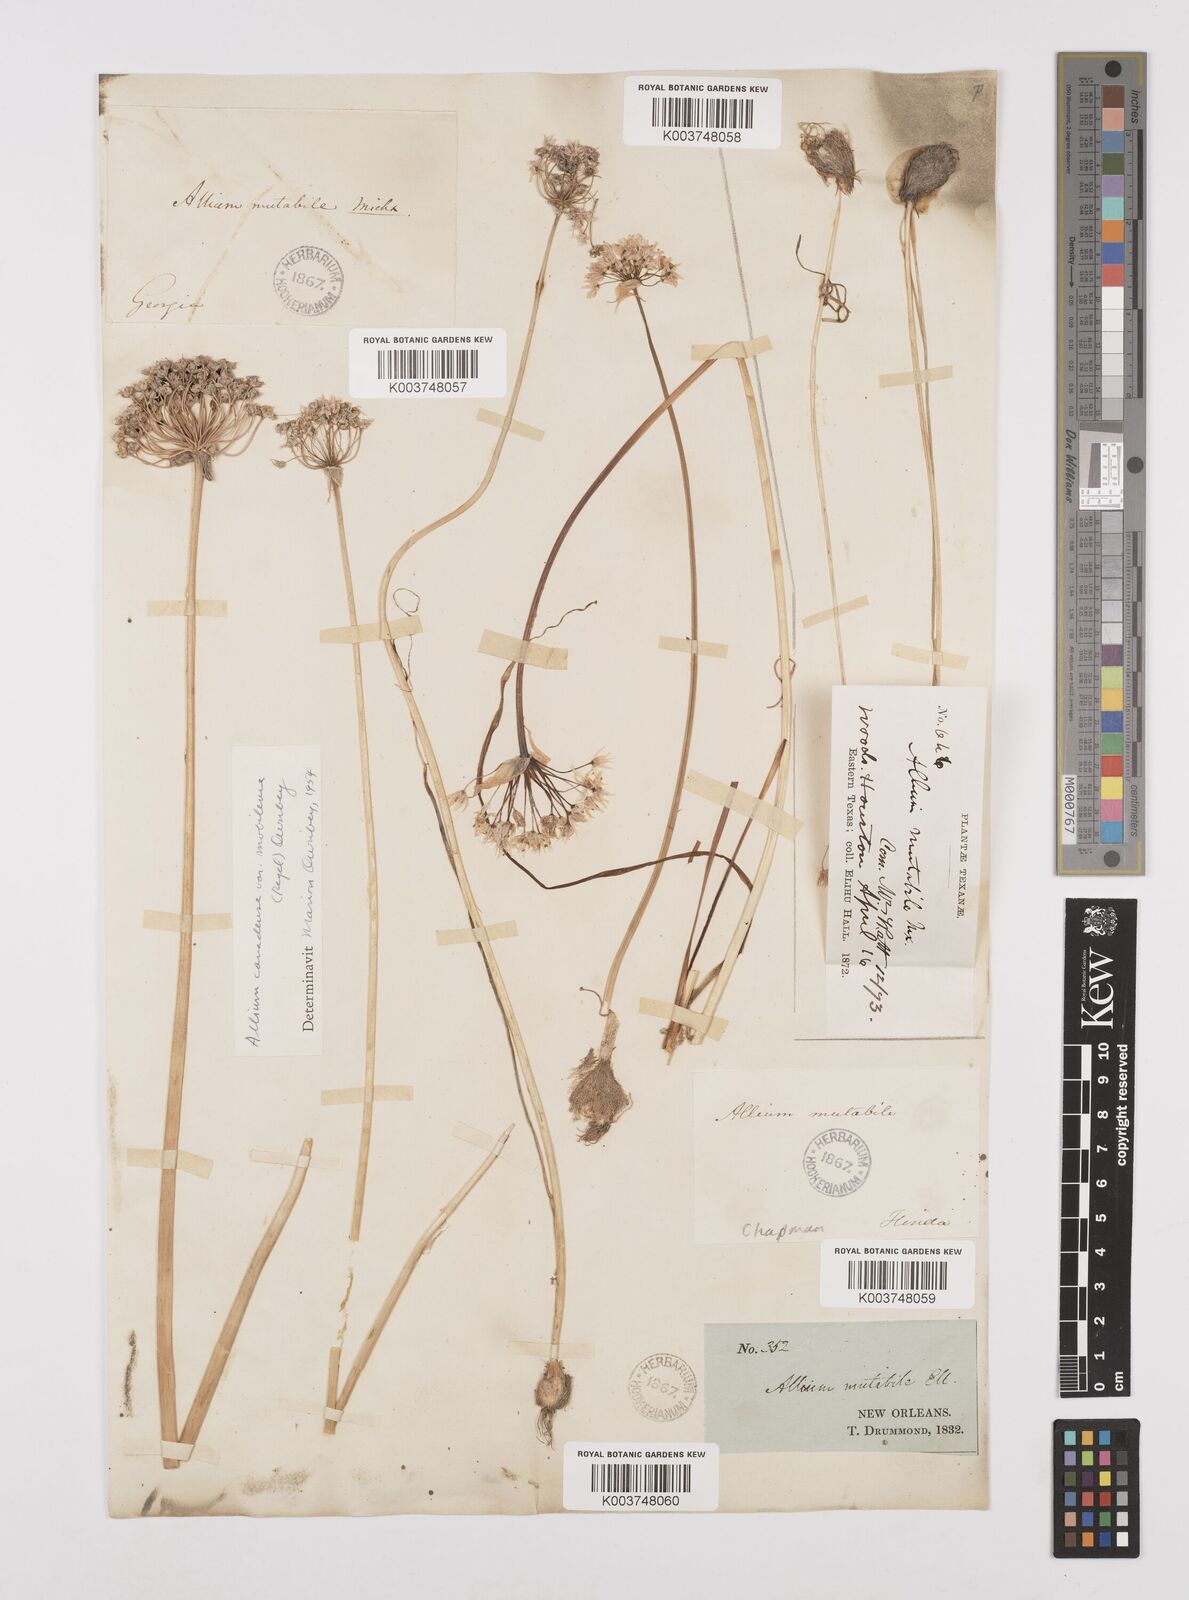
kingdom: Plantae
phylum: Tracheophyta
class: Liliopsida
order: Asparagales
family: Amaryllidaceae
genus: Allium
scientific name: Allium canadense
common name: Meadow garlic
